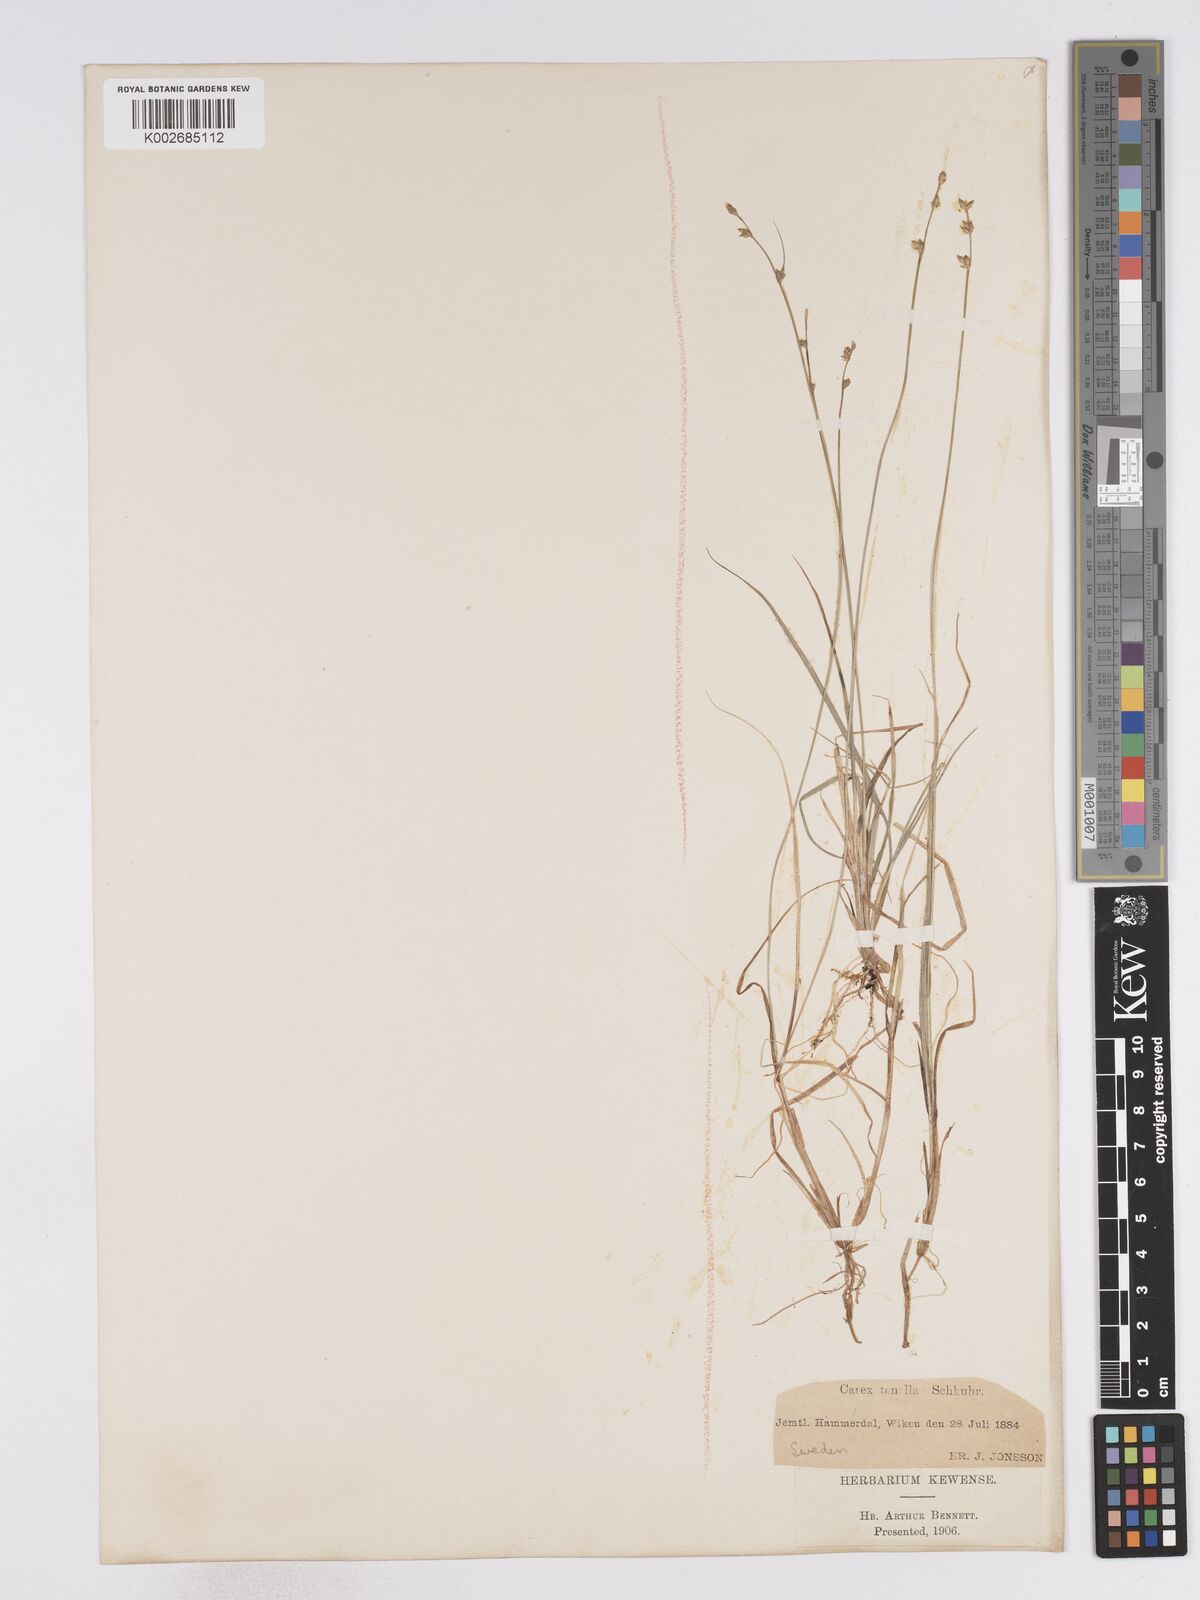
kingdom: Plantae
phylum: Tracheophyta
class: Liliopsida
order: Poales
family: Cyperaceae
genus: Carex
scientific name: Carex disperma
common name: Short-leaved sedge
